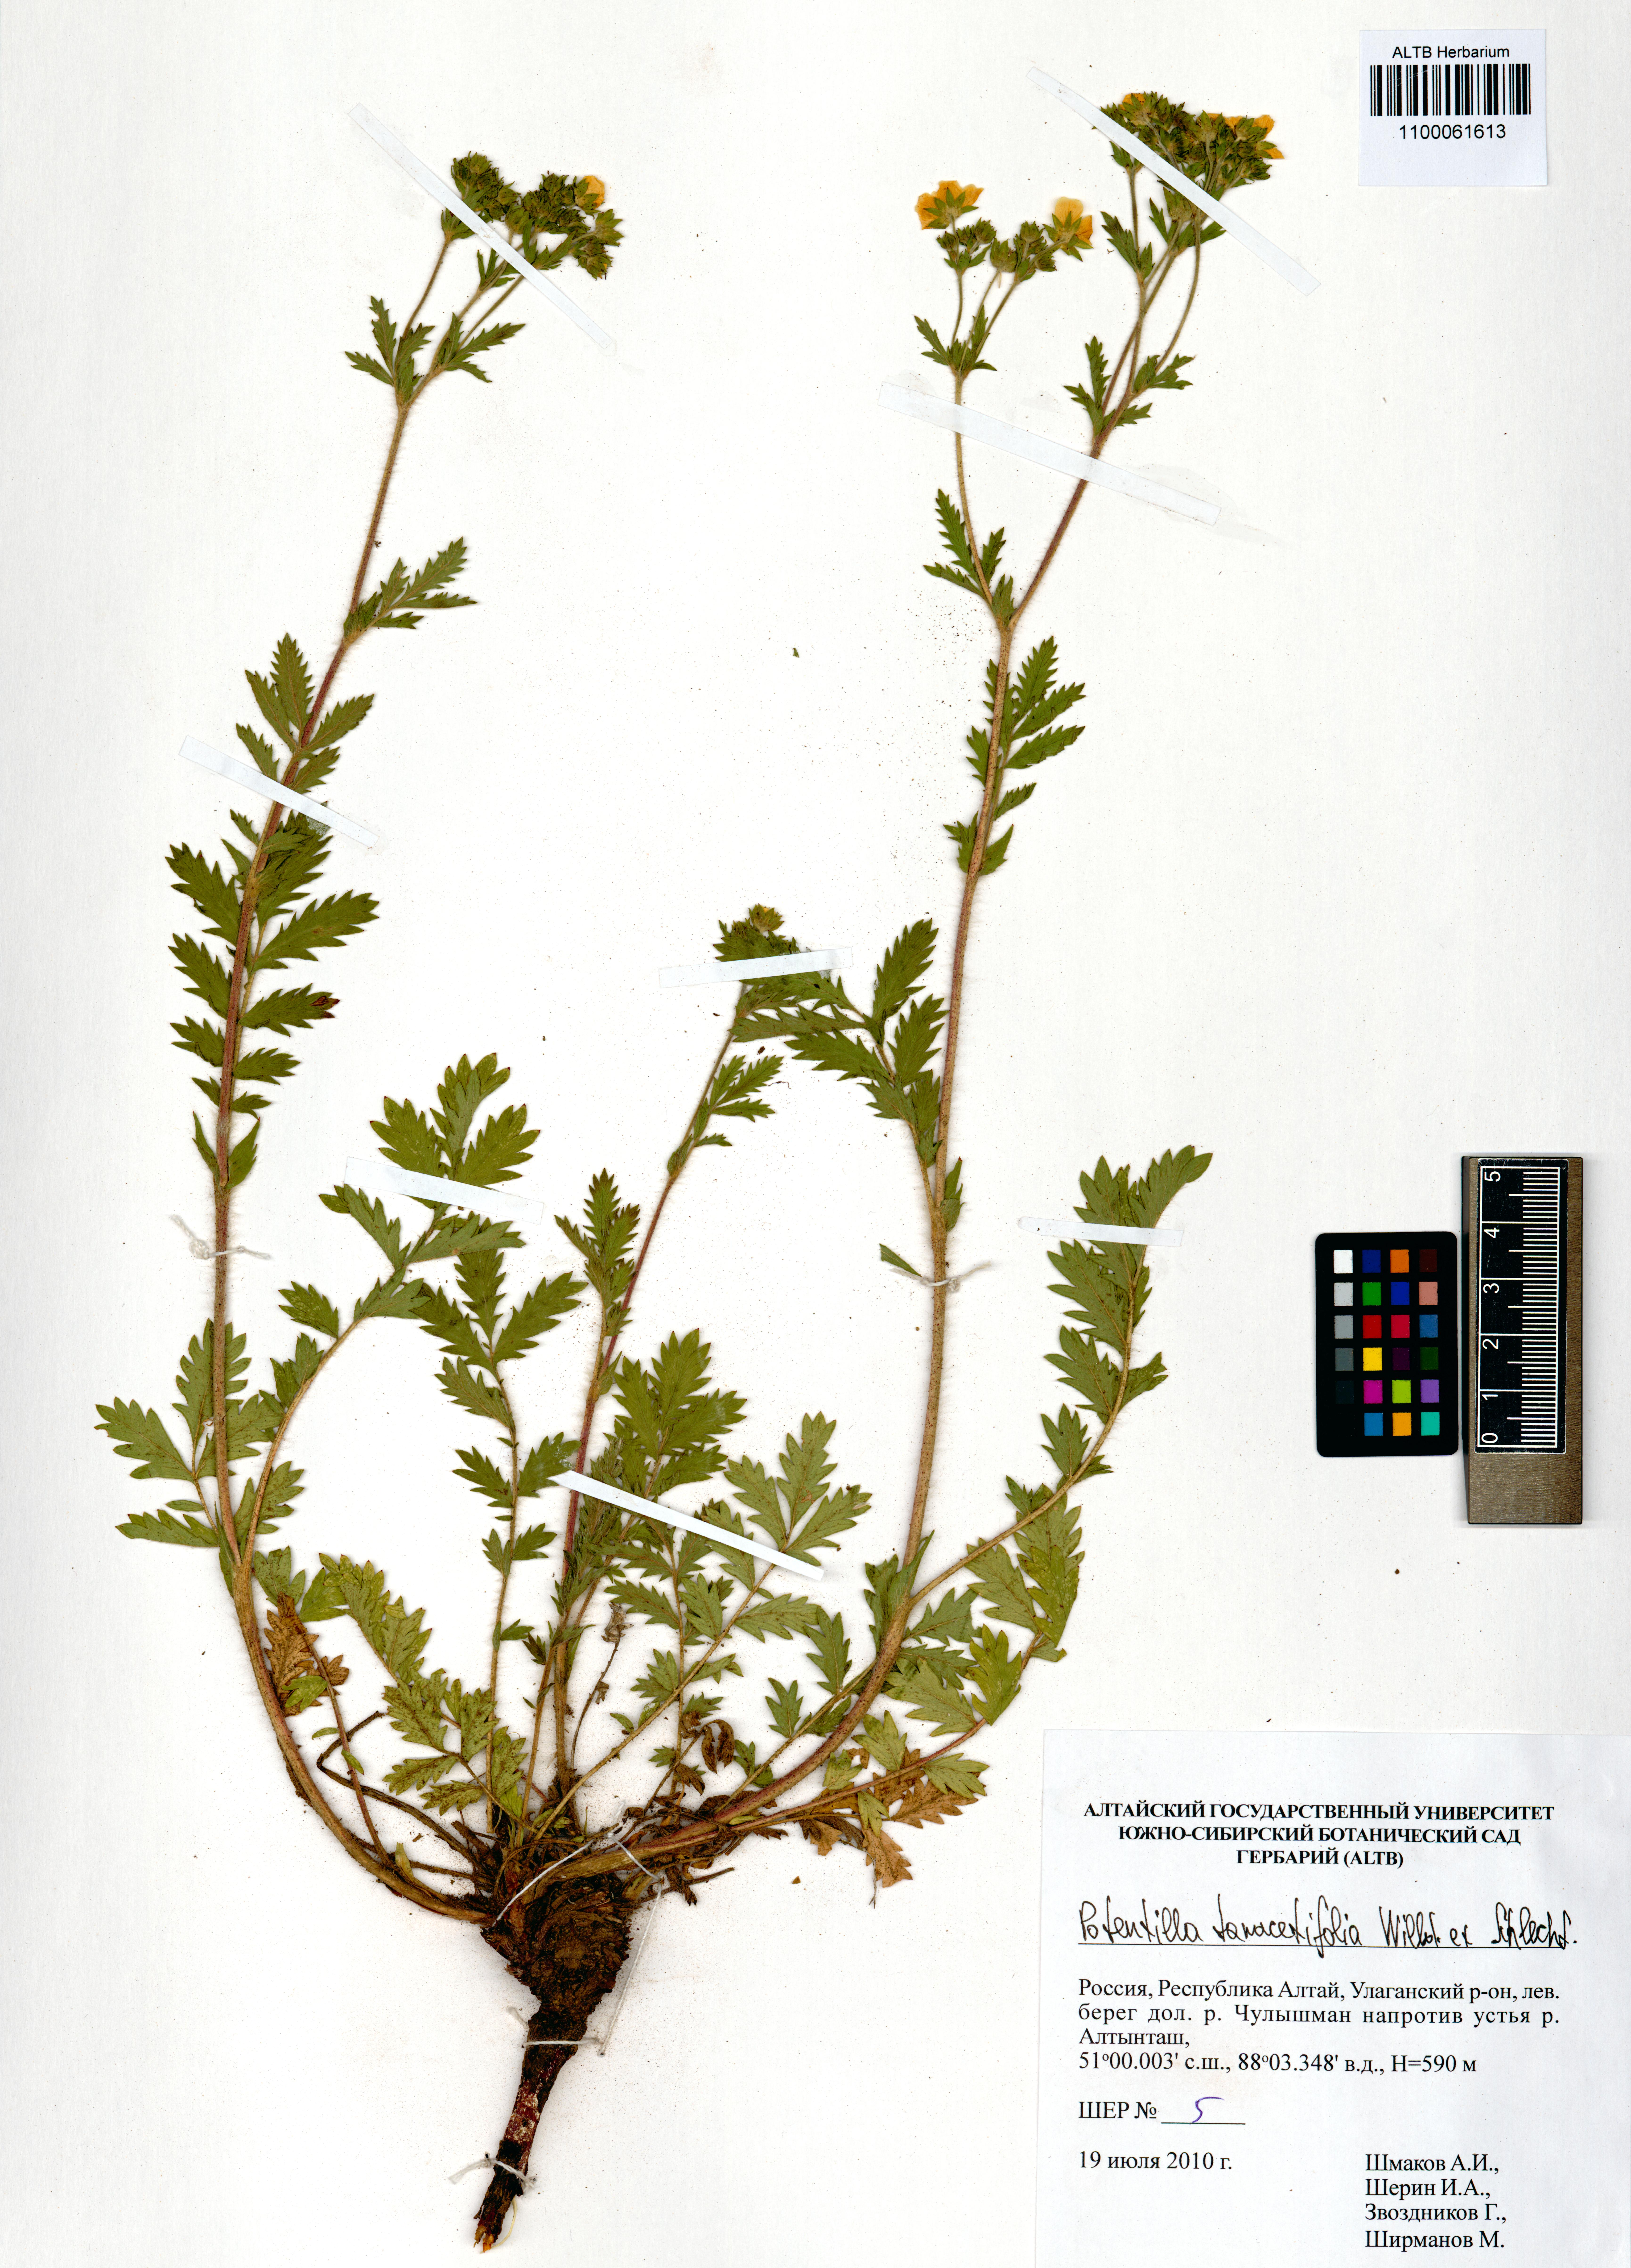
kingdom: Plantae
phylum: Tracheophyta
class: Magnoliopsida
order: Rosales
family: Rosaceae
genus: Potentilla
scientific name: Potentilla tanacetifolia
